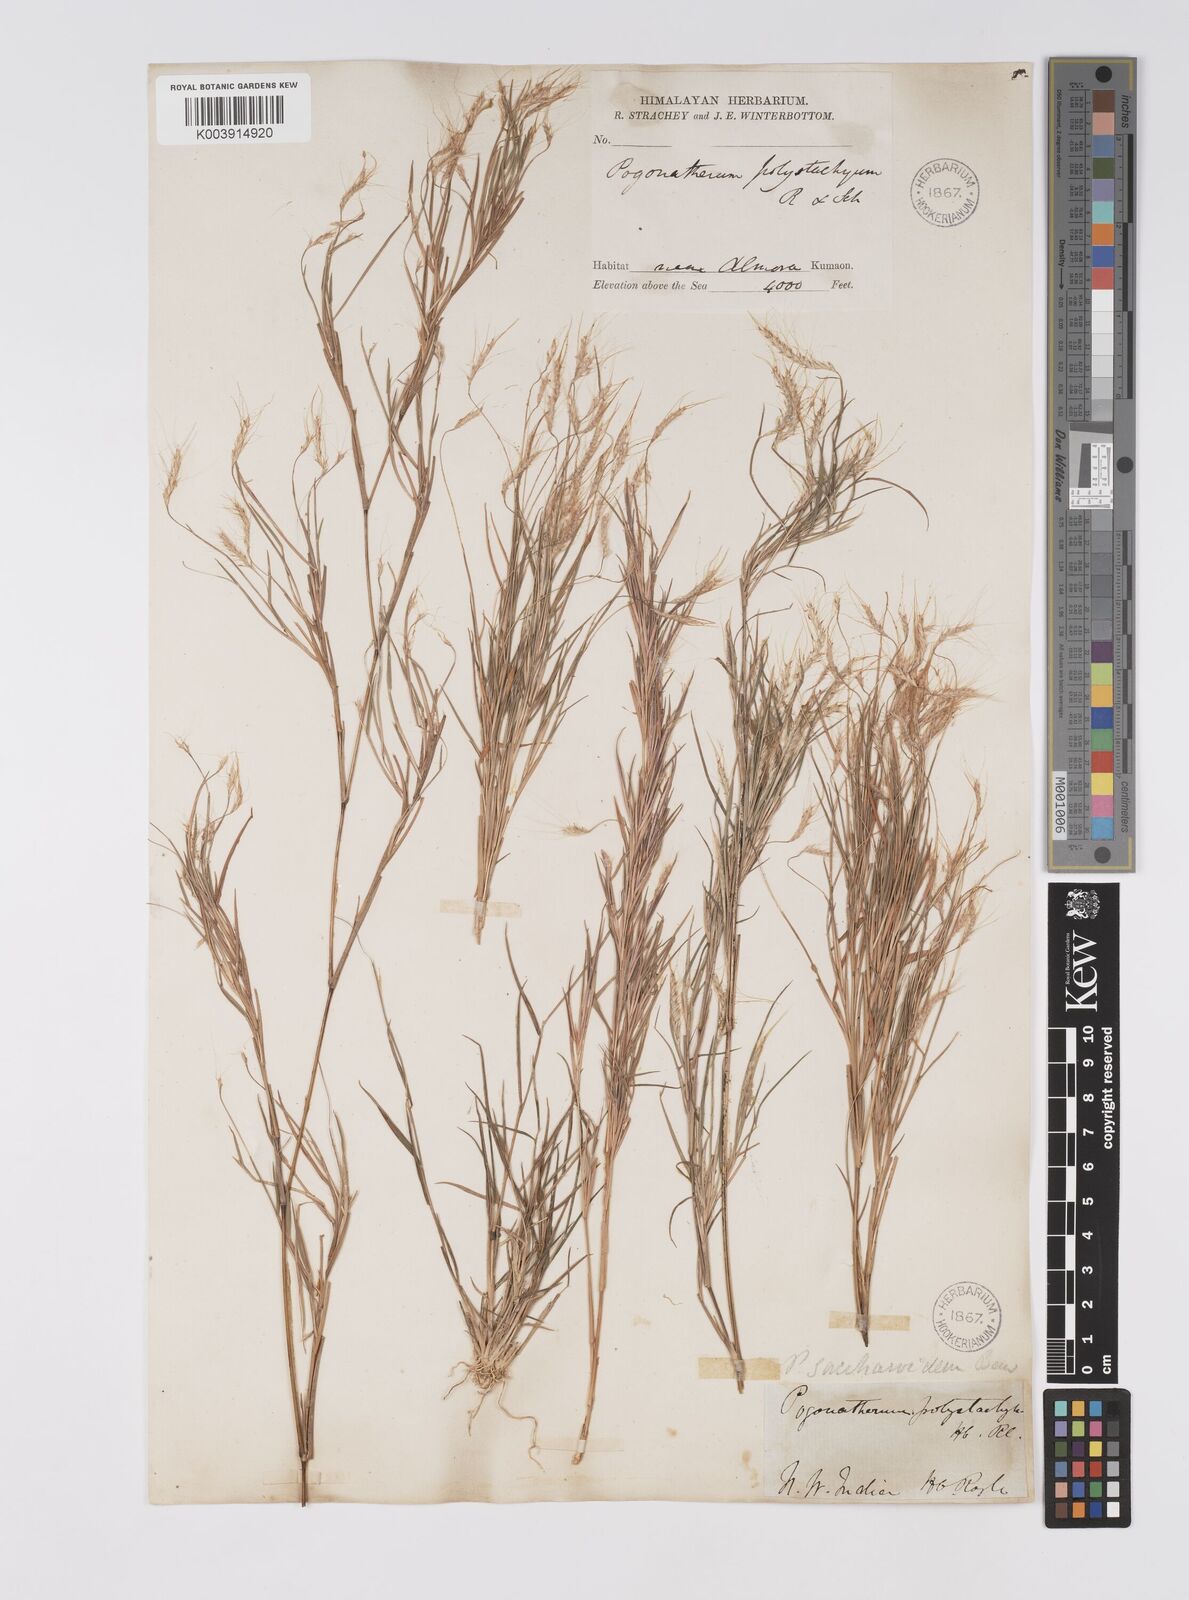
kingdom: Plantae
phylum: Tracheophyta
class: Liliopsida
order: Poales
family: Poaceae
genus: Pogonatherum
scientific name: Pogonatherum paniceum
